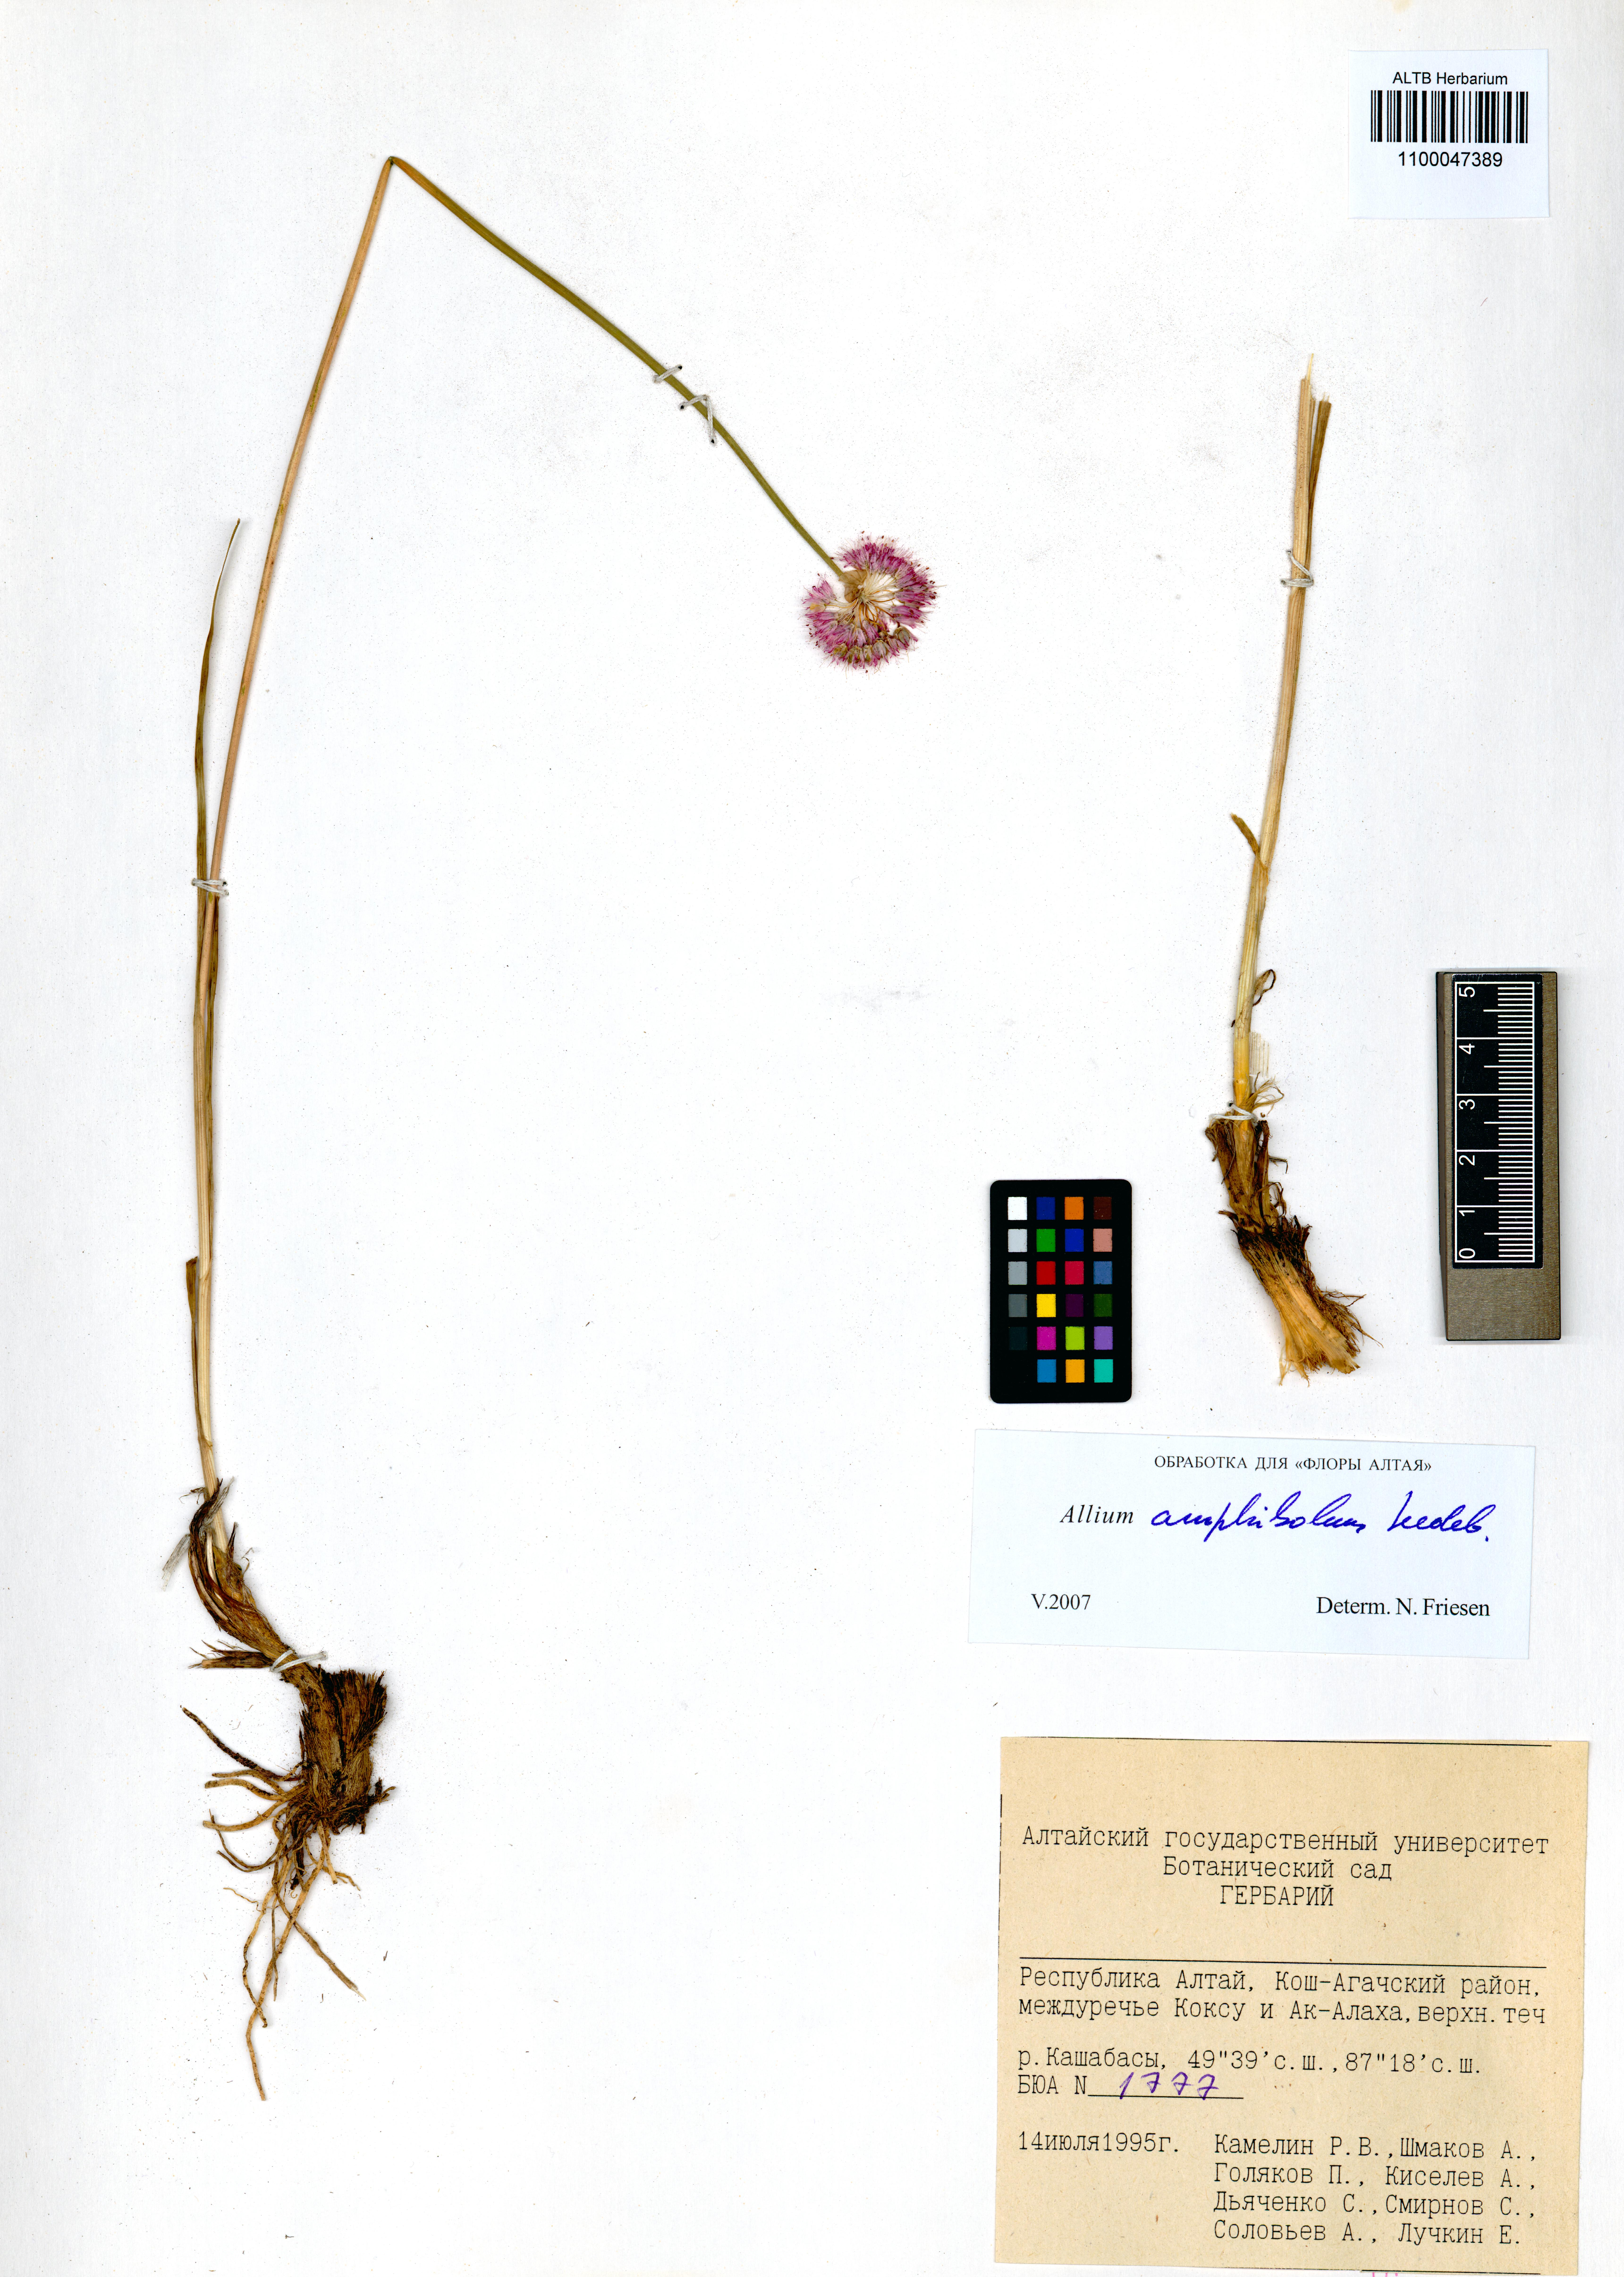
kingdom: Plantae
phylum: Tracheophyta
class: Liliopsida
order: Asparagales
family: Amaryllidaceae
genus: Allium
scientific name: Allium amphibolum
